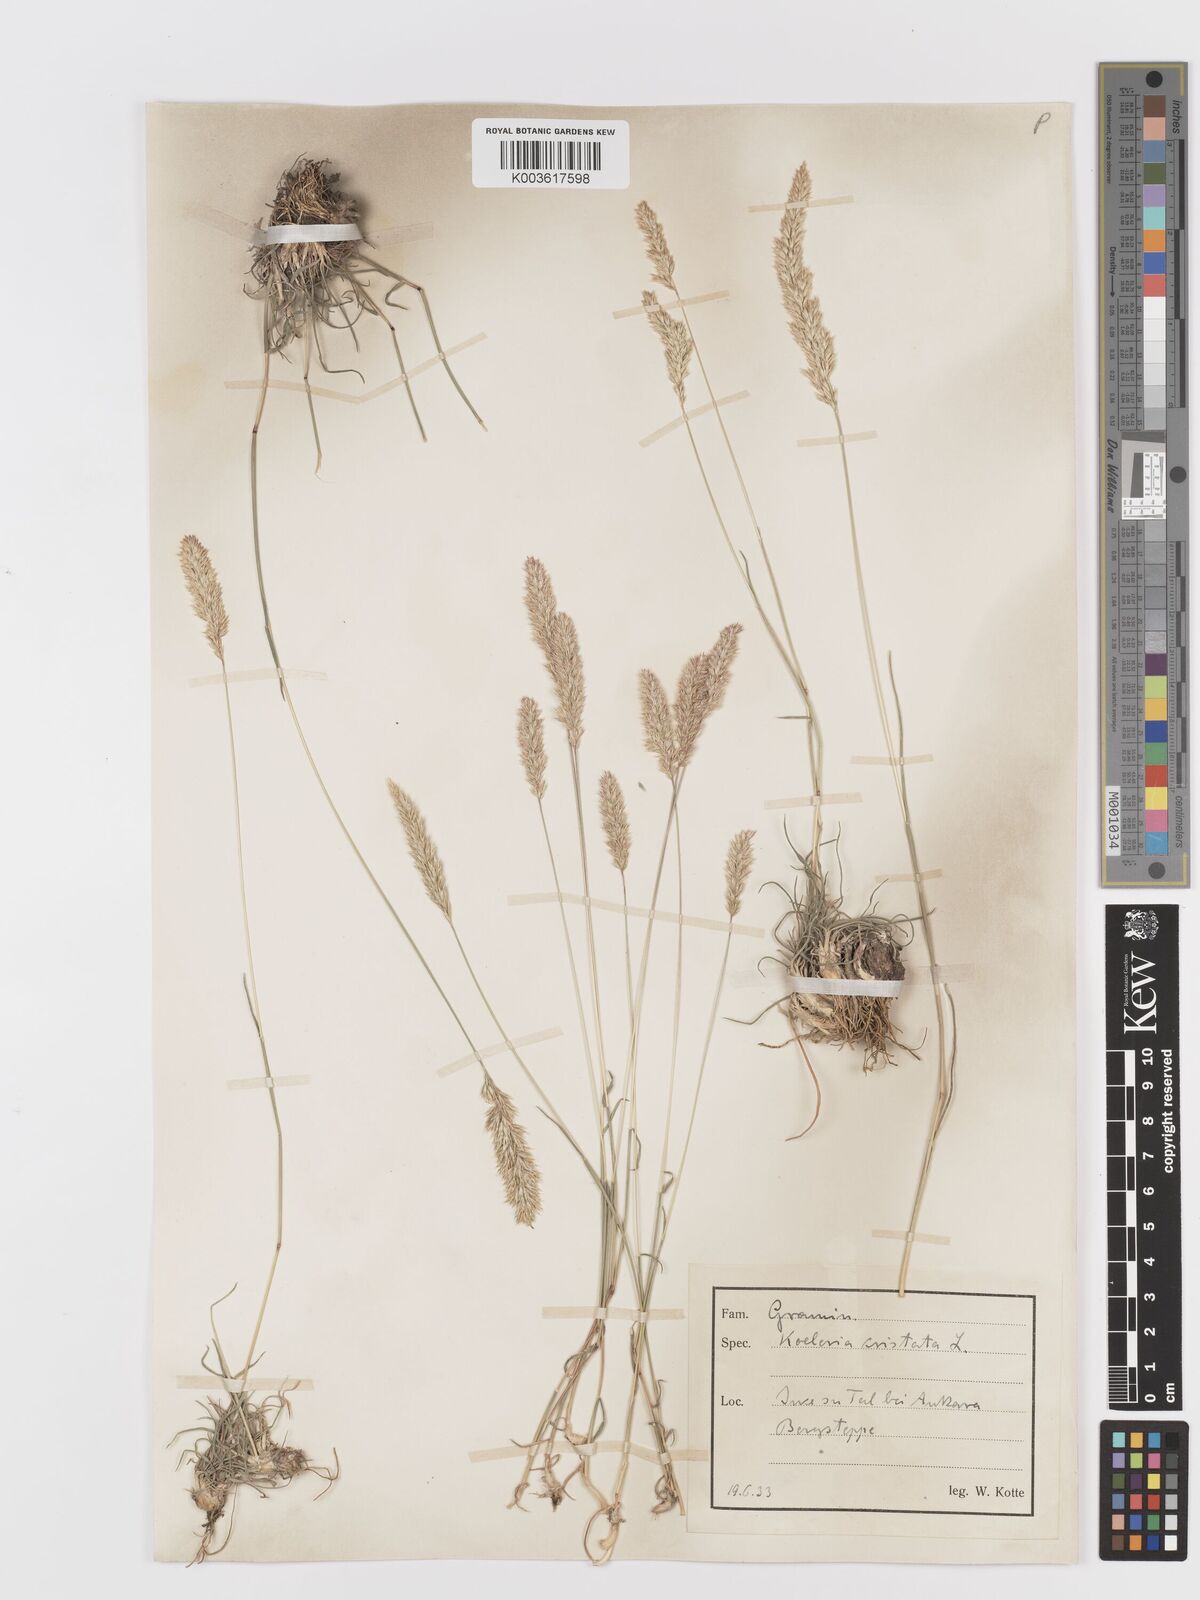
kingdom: Plantae
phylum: Tracheophyta
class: Liliopsida
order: Poales
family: Poaceae
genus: Koeleria
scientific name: Koeleria macrantha
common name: Crested hair-grass
